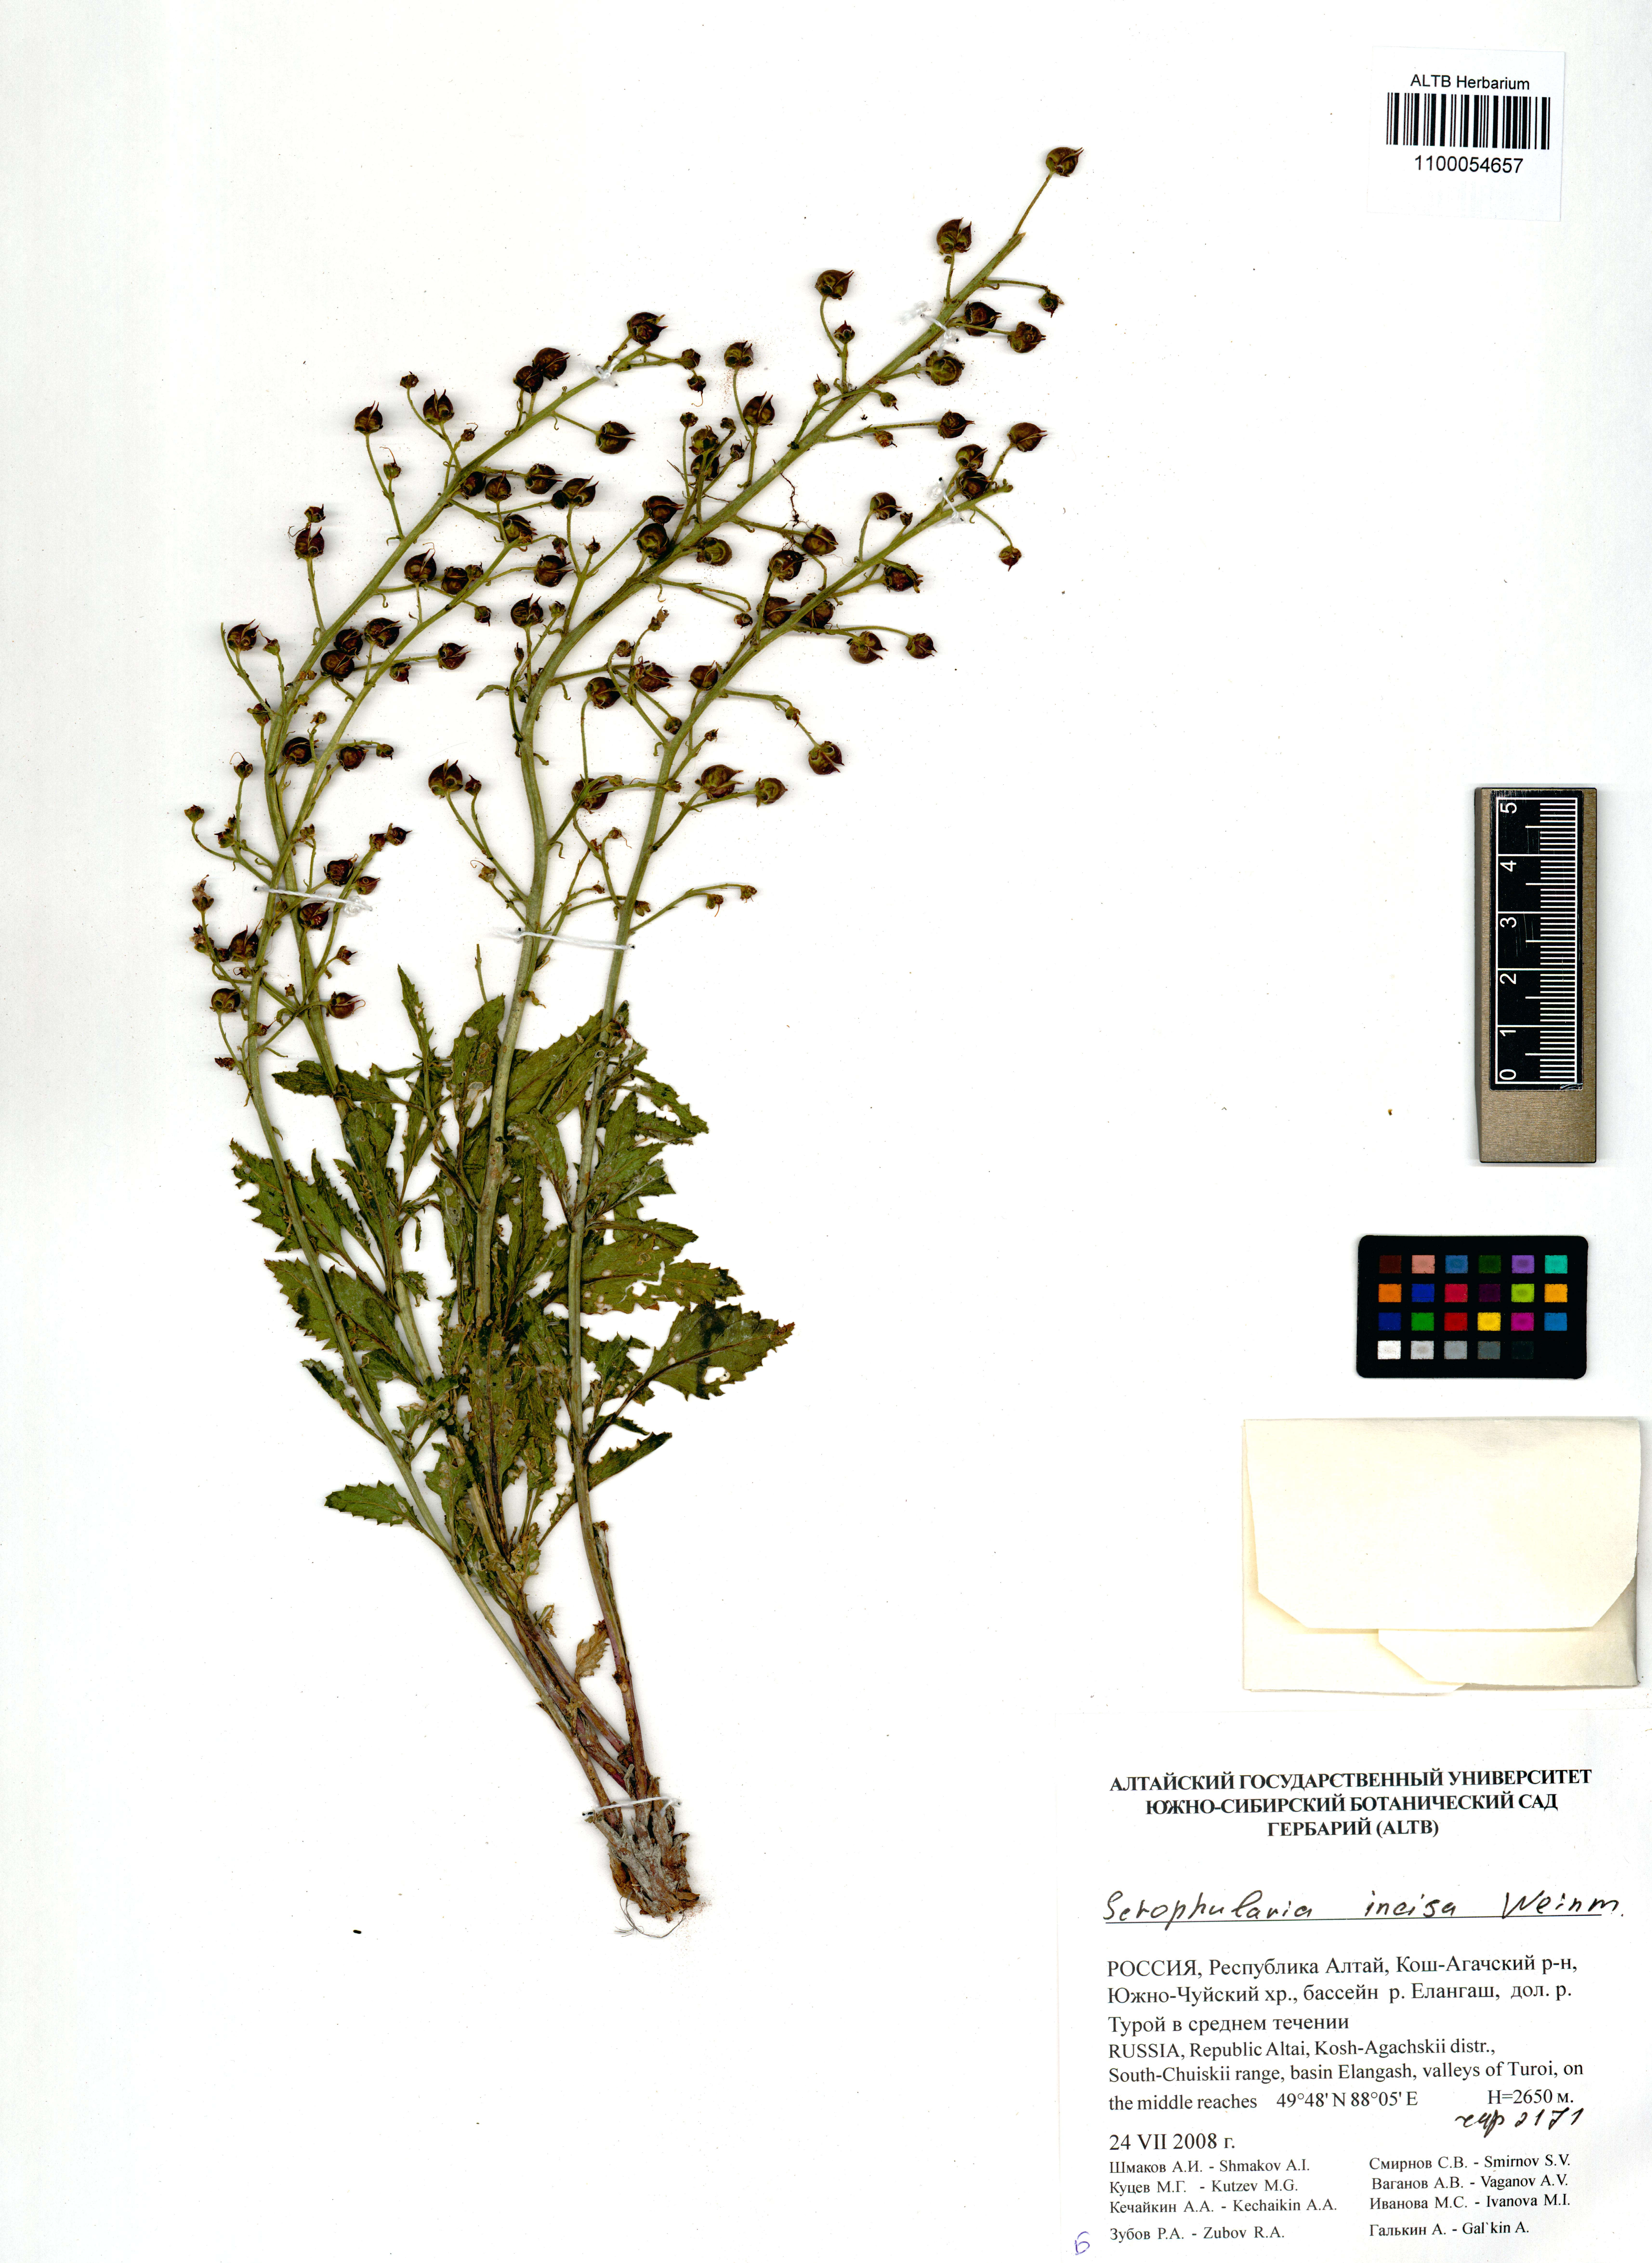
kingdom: Plantae
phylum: Tracheophyta
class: Magnoliopsida
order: Lamiales
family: Scrophulariaceae
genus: Scrophularia
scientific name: Scrophularia incisa
